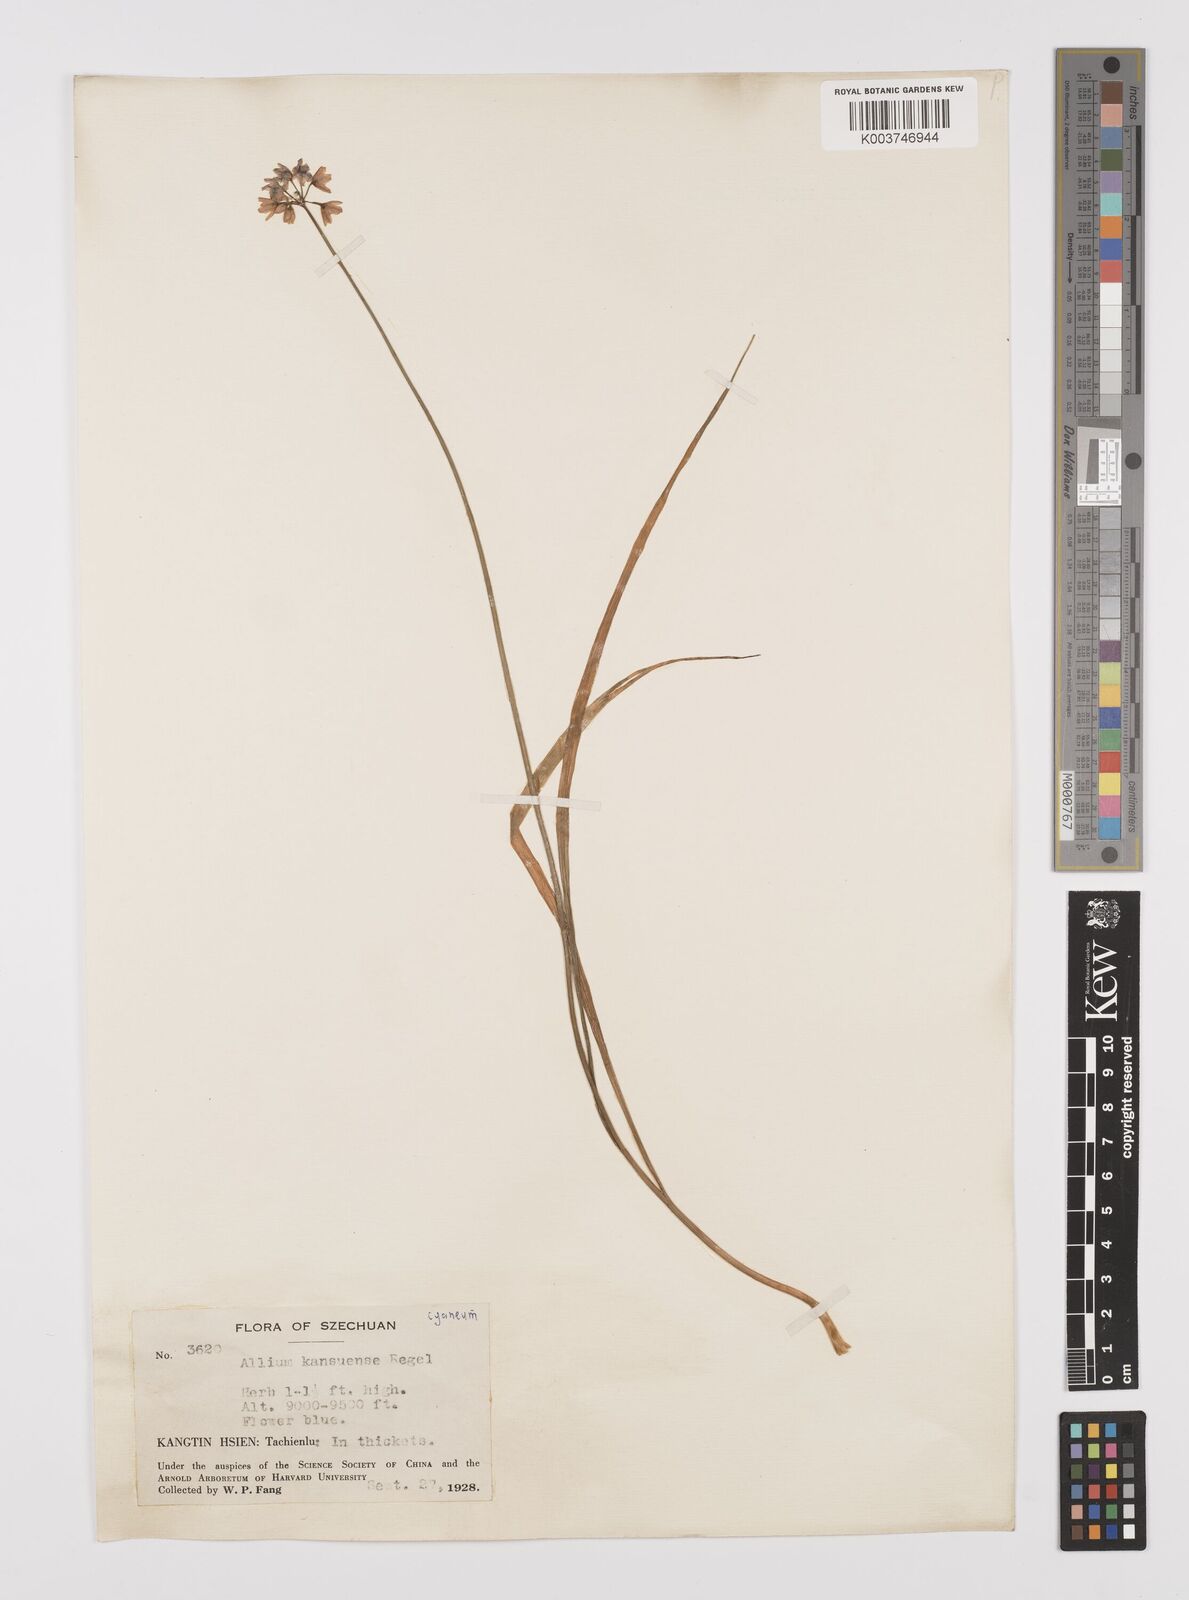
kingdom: Plantae
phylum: Tracheophyta
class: Liliopsida
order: Asparagales
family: Amaryllidaceae
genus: Allium
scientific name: Allium
